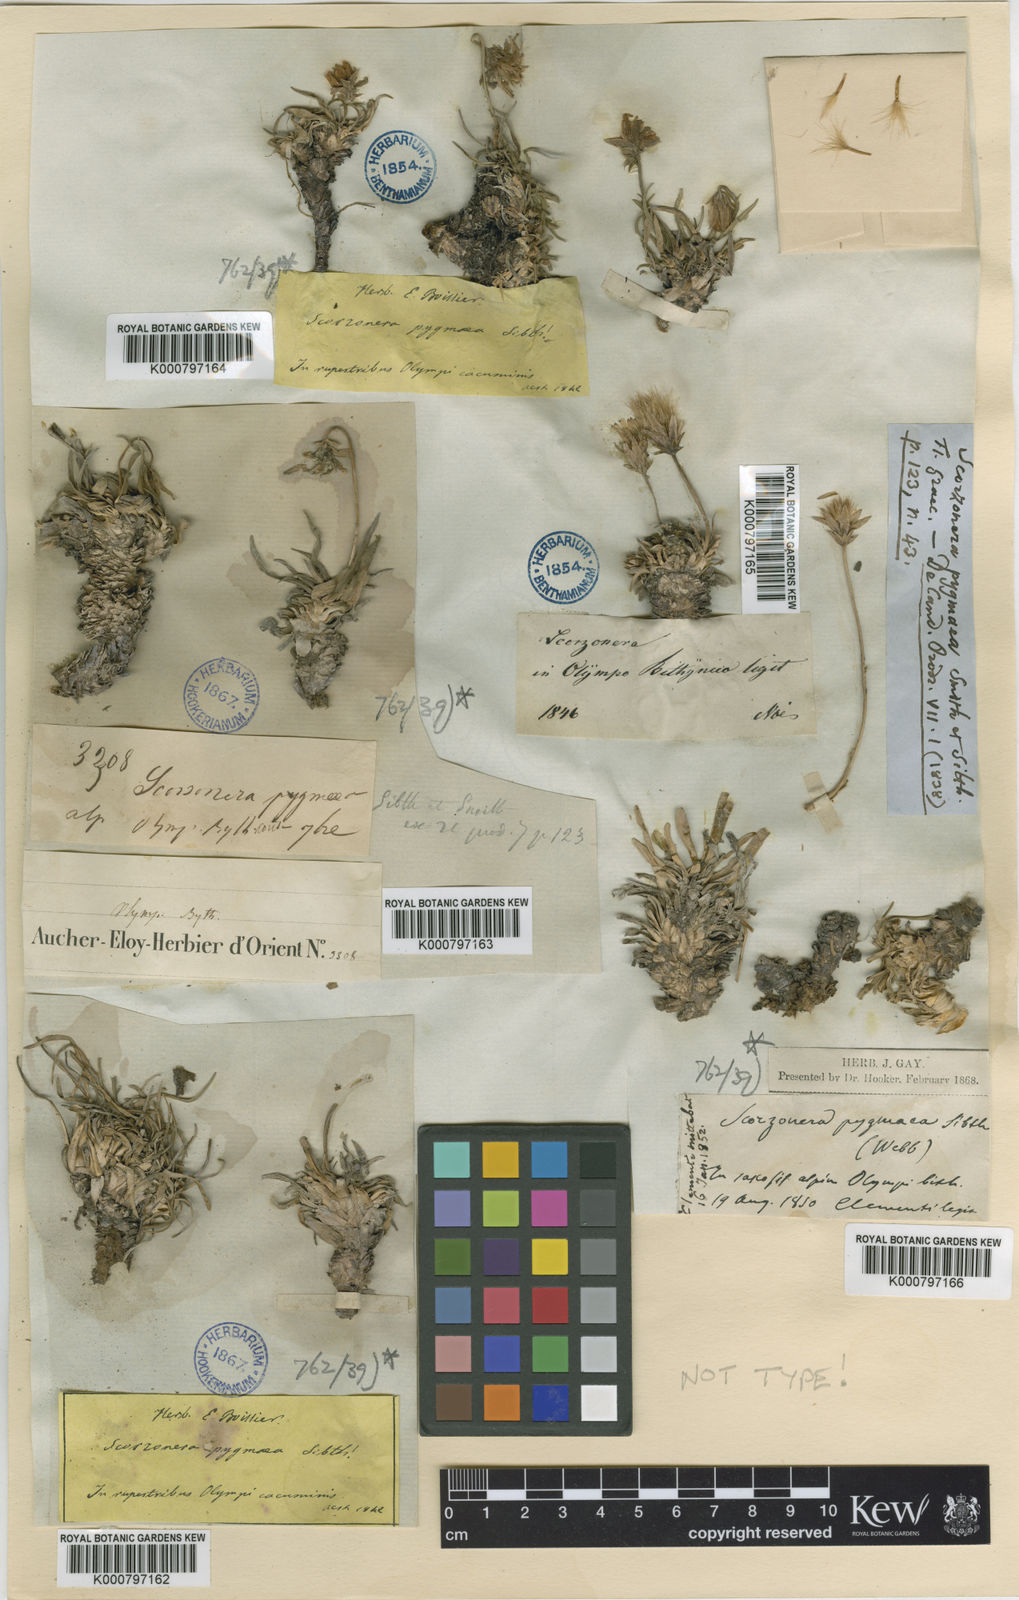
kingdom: Plantae
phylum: Tracheophyta
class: Magnoliopsida
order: Asterales
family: Asteraceae
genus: Goekyighitia
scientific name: Goekyighitia pygmaea
